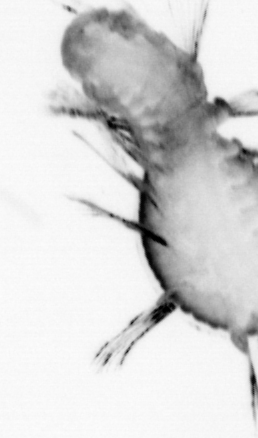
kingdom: Animalia
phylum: Annelida
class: Polychaeta
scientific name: Polychaeta
